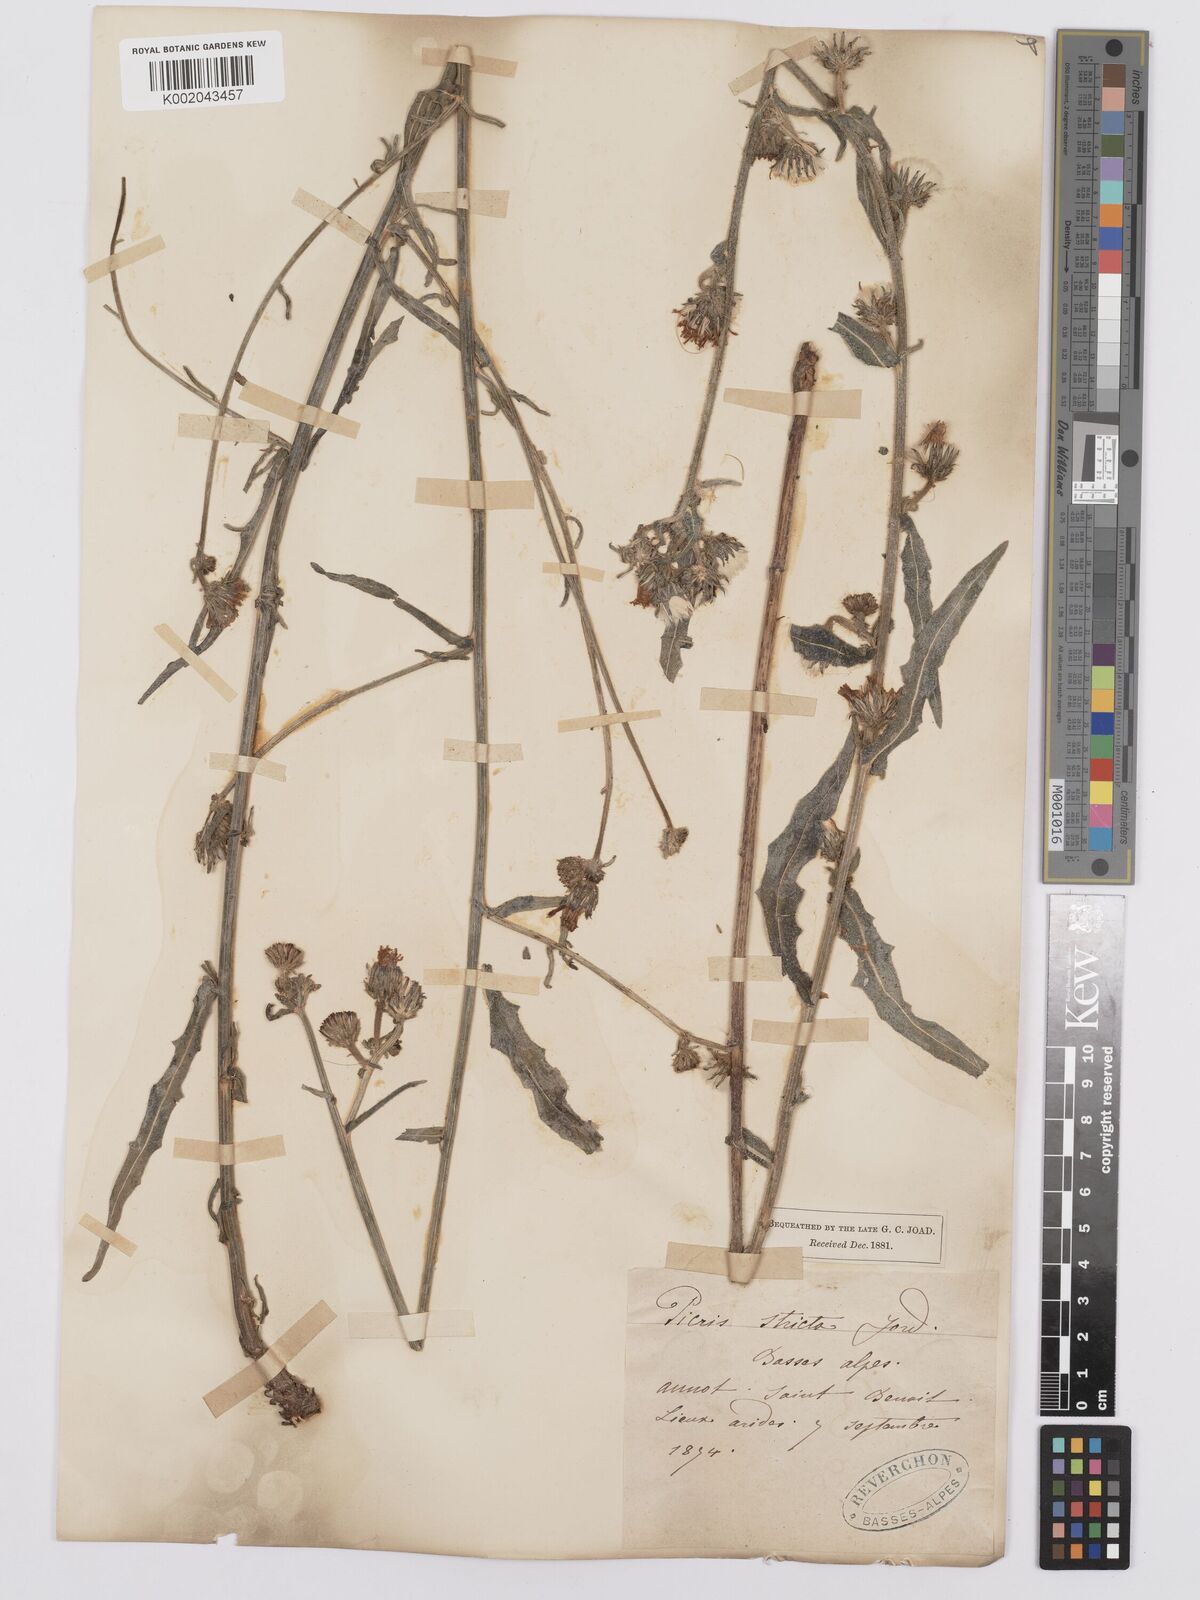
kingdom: Plantae
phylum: Tracheophyta
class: Magnoliopsida
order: Asterales
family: Asteraceae
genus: Picris
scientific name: Picris hieracioides
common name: Hawkweed oxtongue
